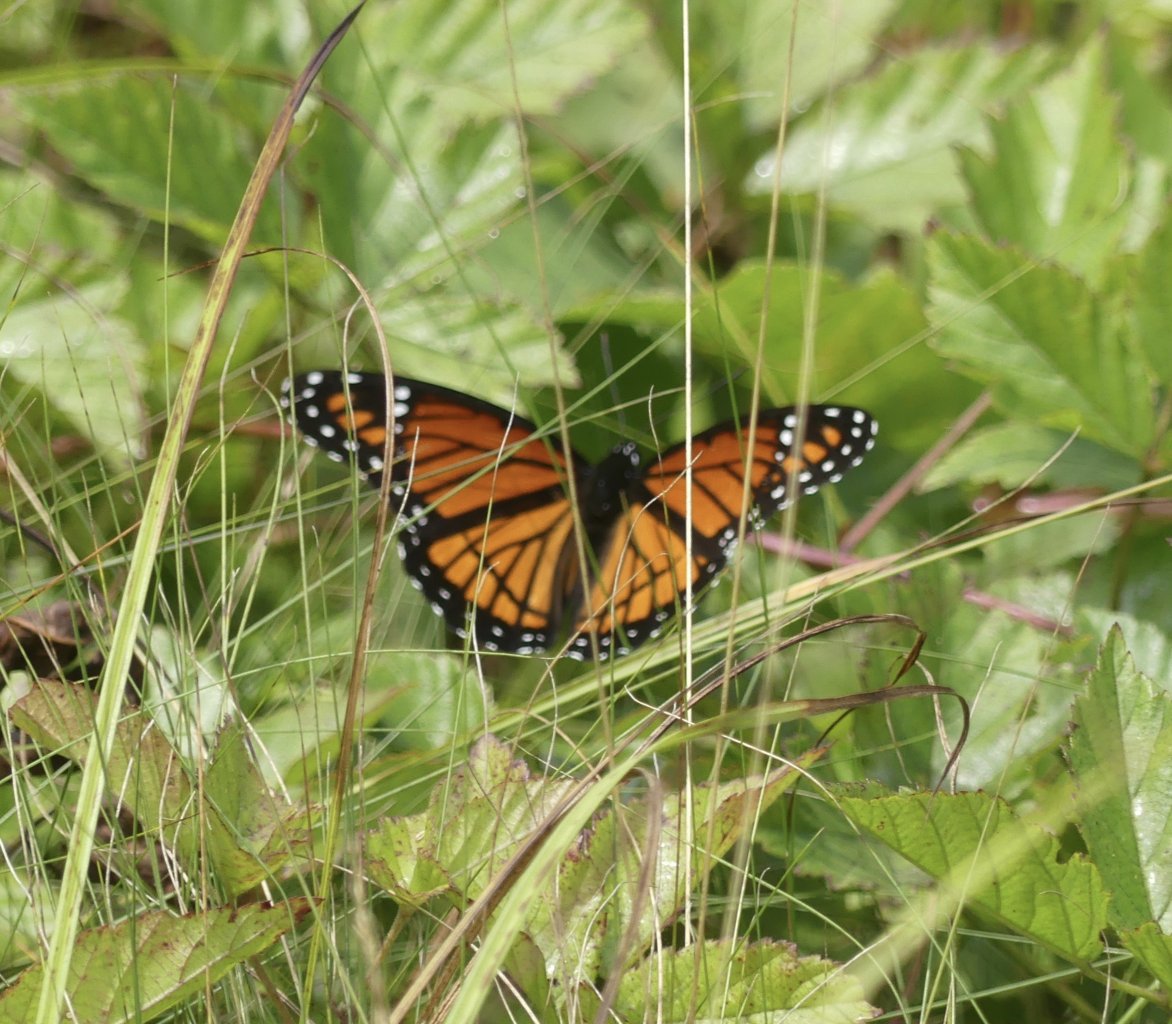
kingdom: Animalia
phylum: Arthropoda
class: Insecta
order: Lepidoptera
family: Nymphalidae
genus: Limenitis
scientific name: Limenitis archippus
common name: Viceroy
